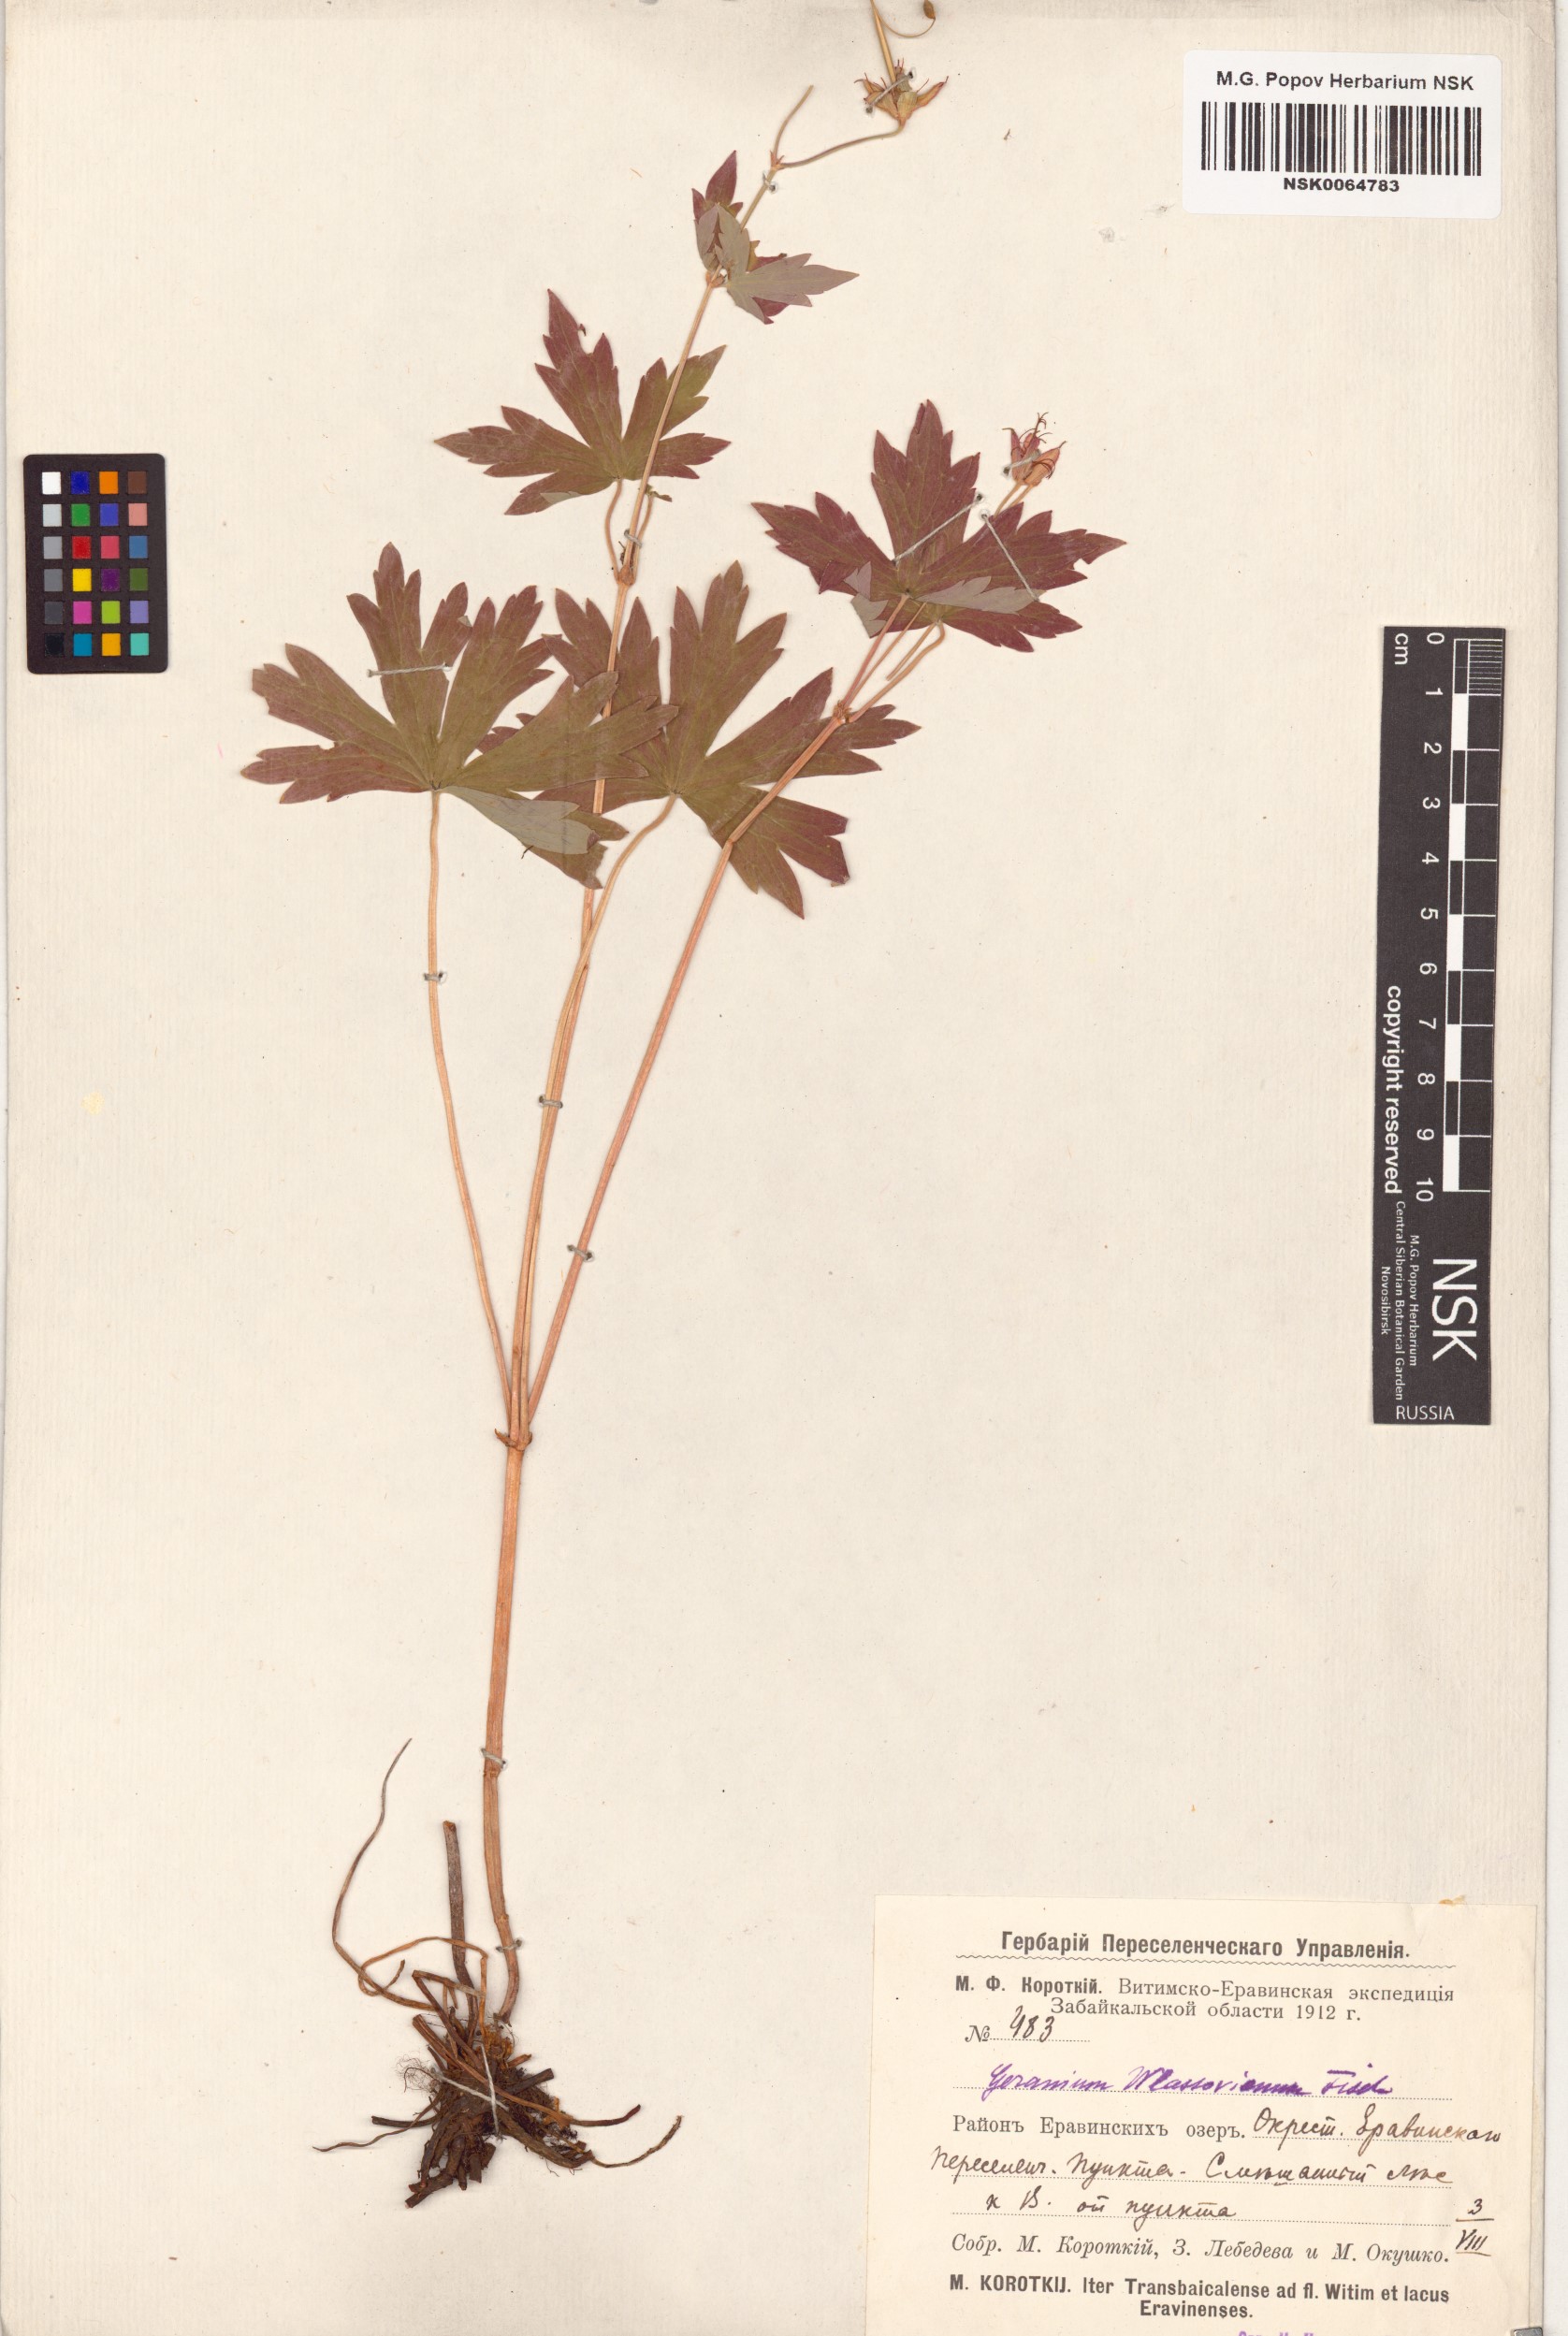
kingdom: Plantae
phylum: Tracheophyta
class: Magnoliopsida
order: Geraniales
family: Geraniaceae
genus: Geranium
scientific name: Geranium wlassovianum
